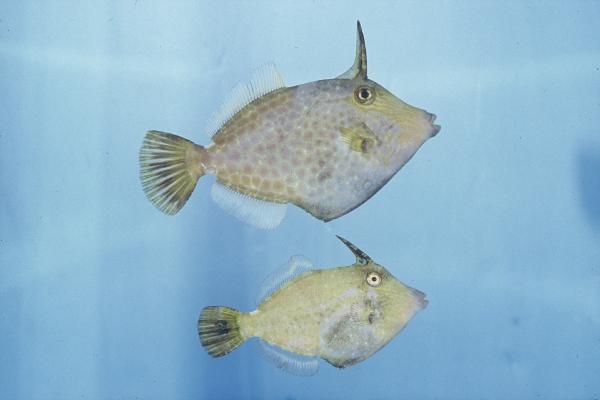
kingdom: Animalia
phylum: Chordata
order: Tetraodontiformes
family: Monacanthidae
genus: Cantherhines
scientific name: Cantherhines pardalis
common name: Honeycomb filefish
